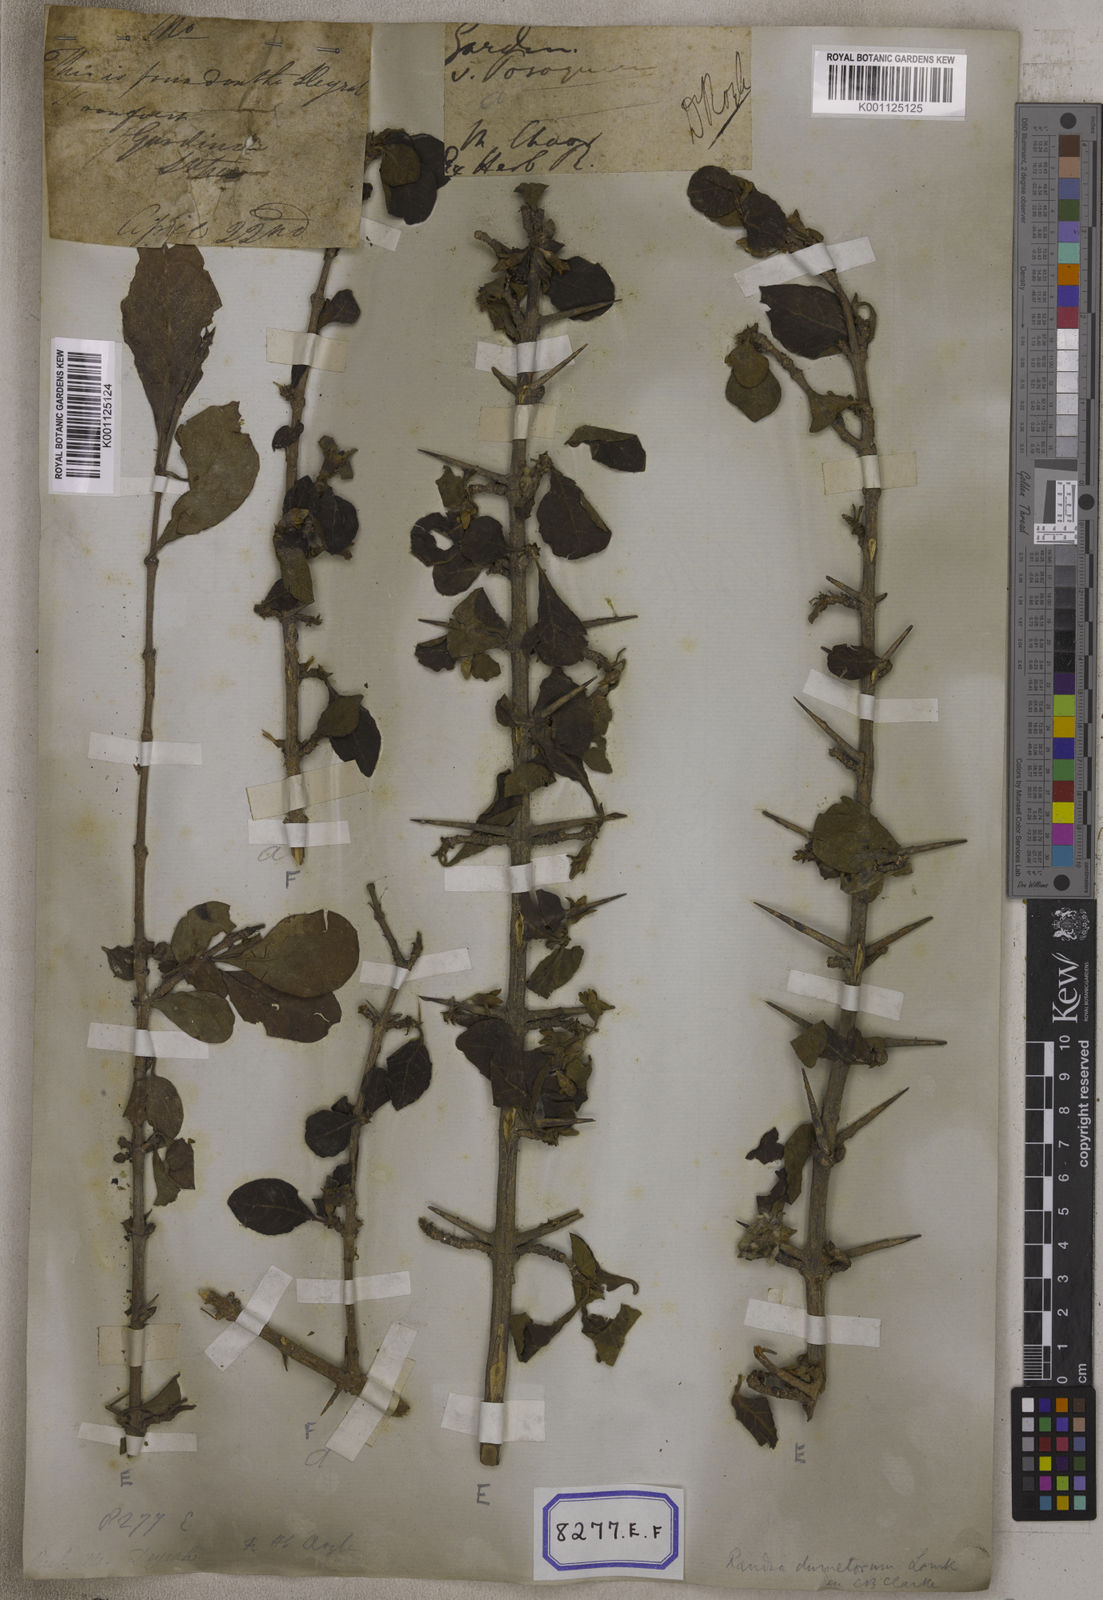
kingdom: Plantae
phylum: Tracheophyta
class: Magnoliopsida
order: Gentianales
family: Rubiaceae
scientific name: Rubiaceae
